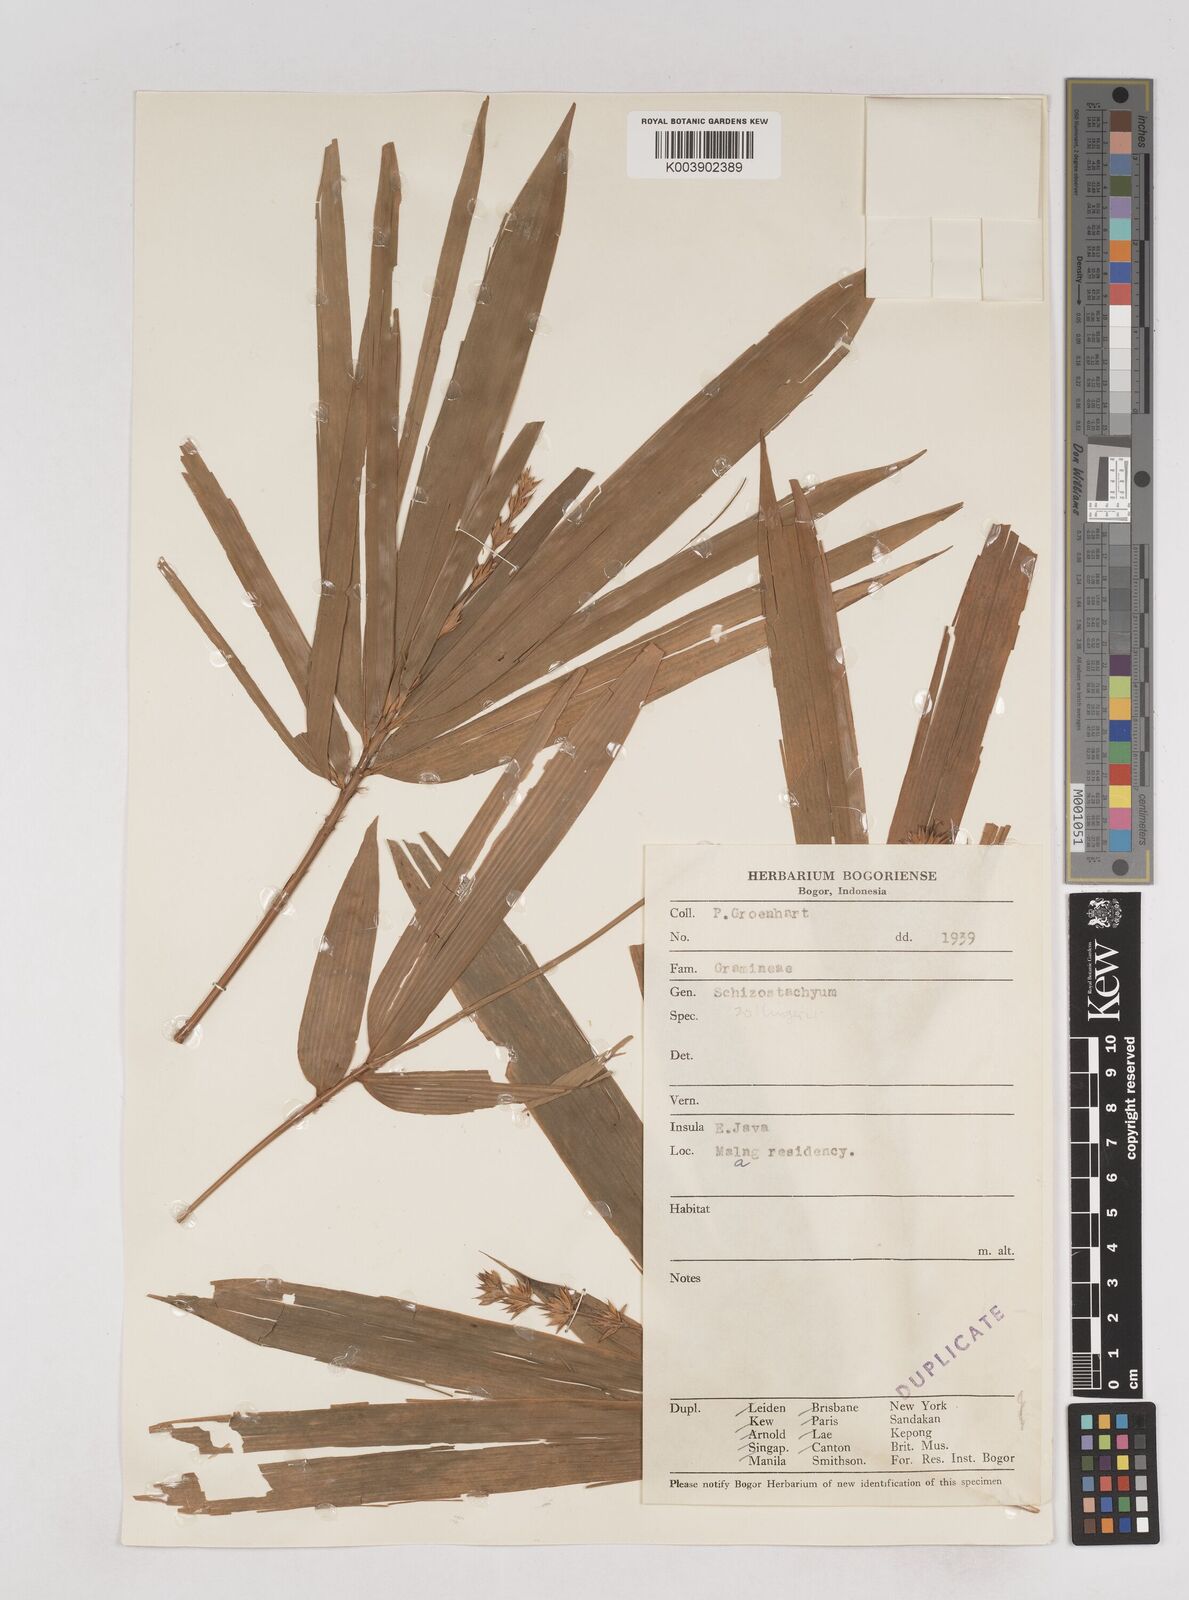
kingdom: Plantae
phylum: Tracheophyta
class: Liliopsida
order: Poales
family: Poaceae
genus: Schizostachyum
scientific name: Schizostachyum zollingeri
